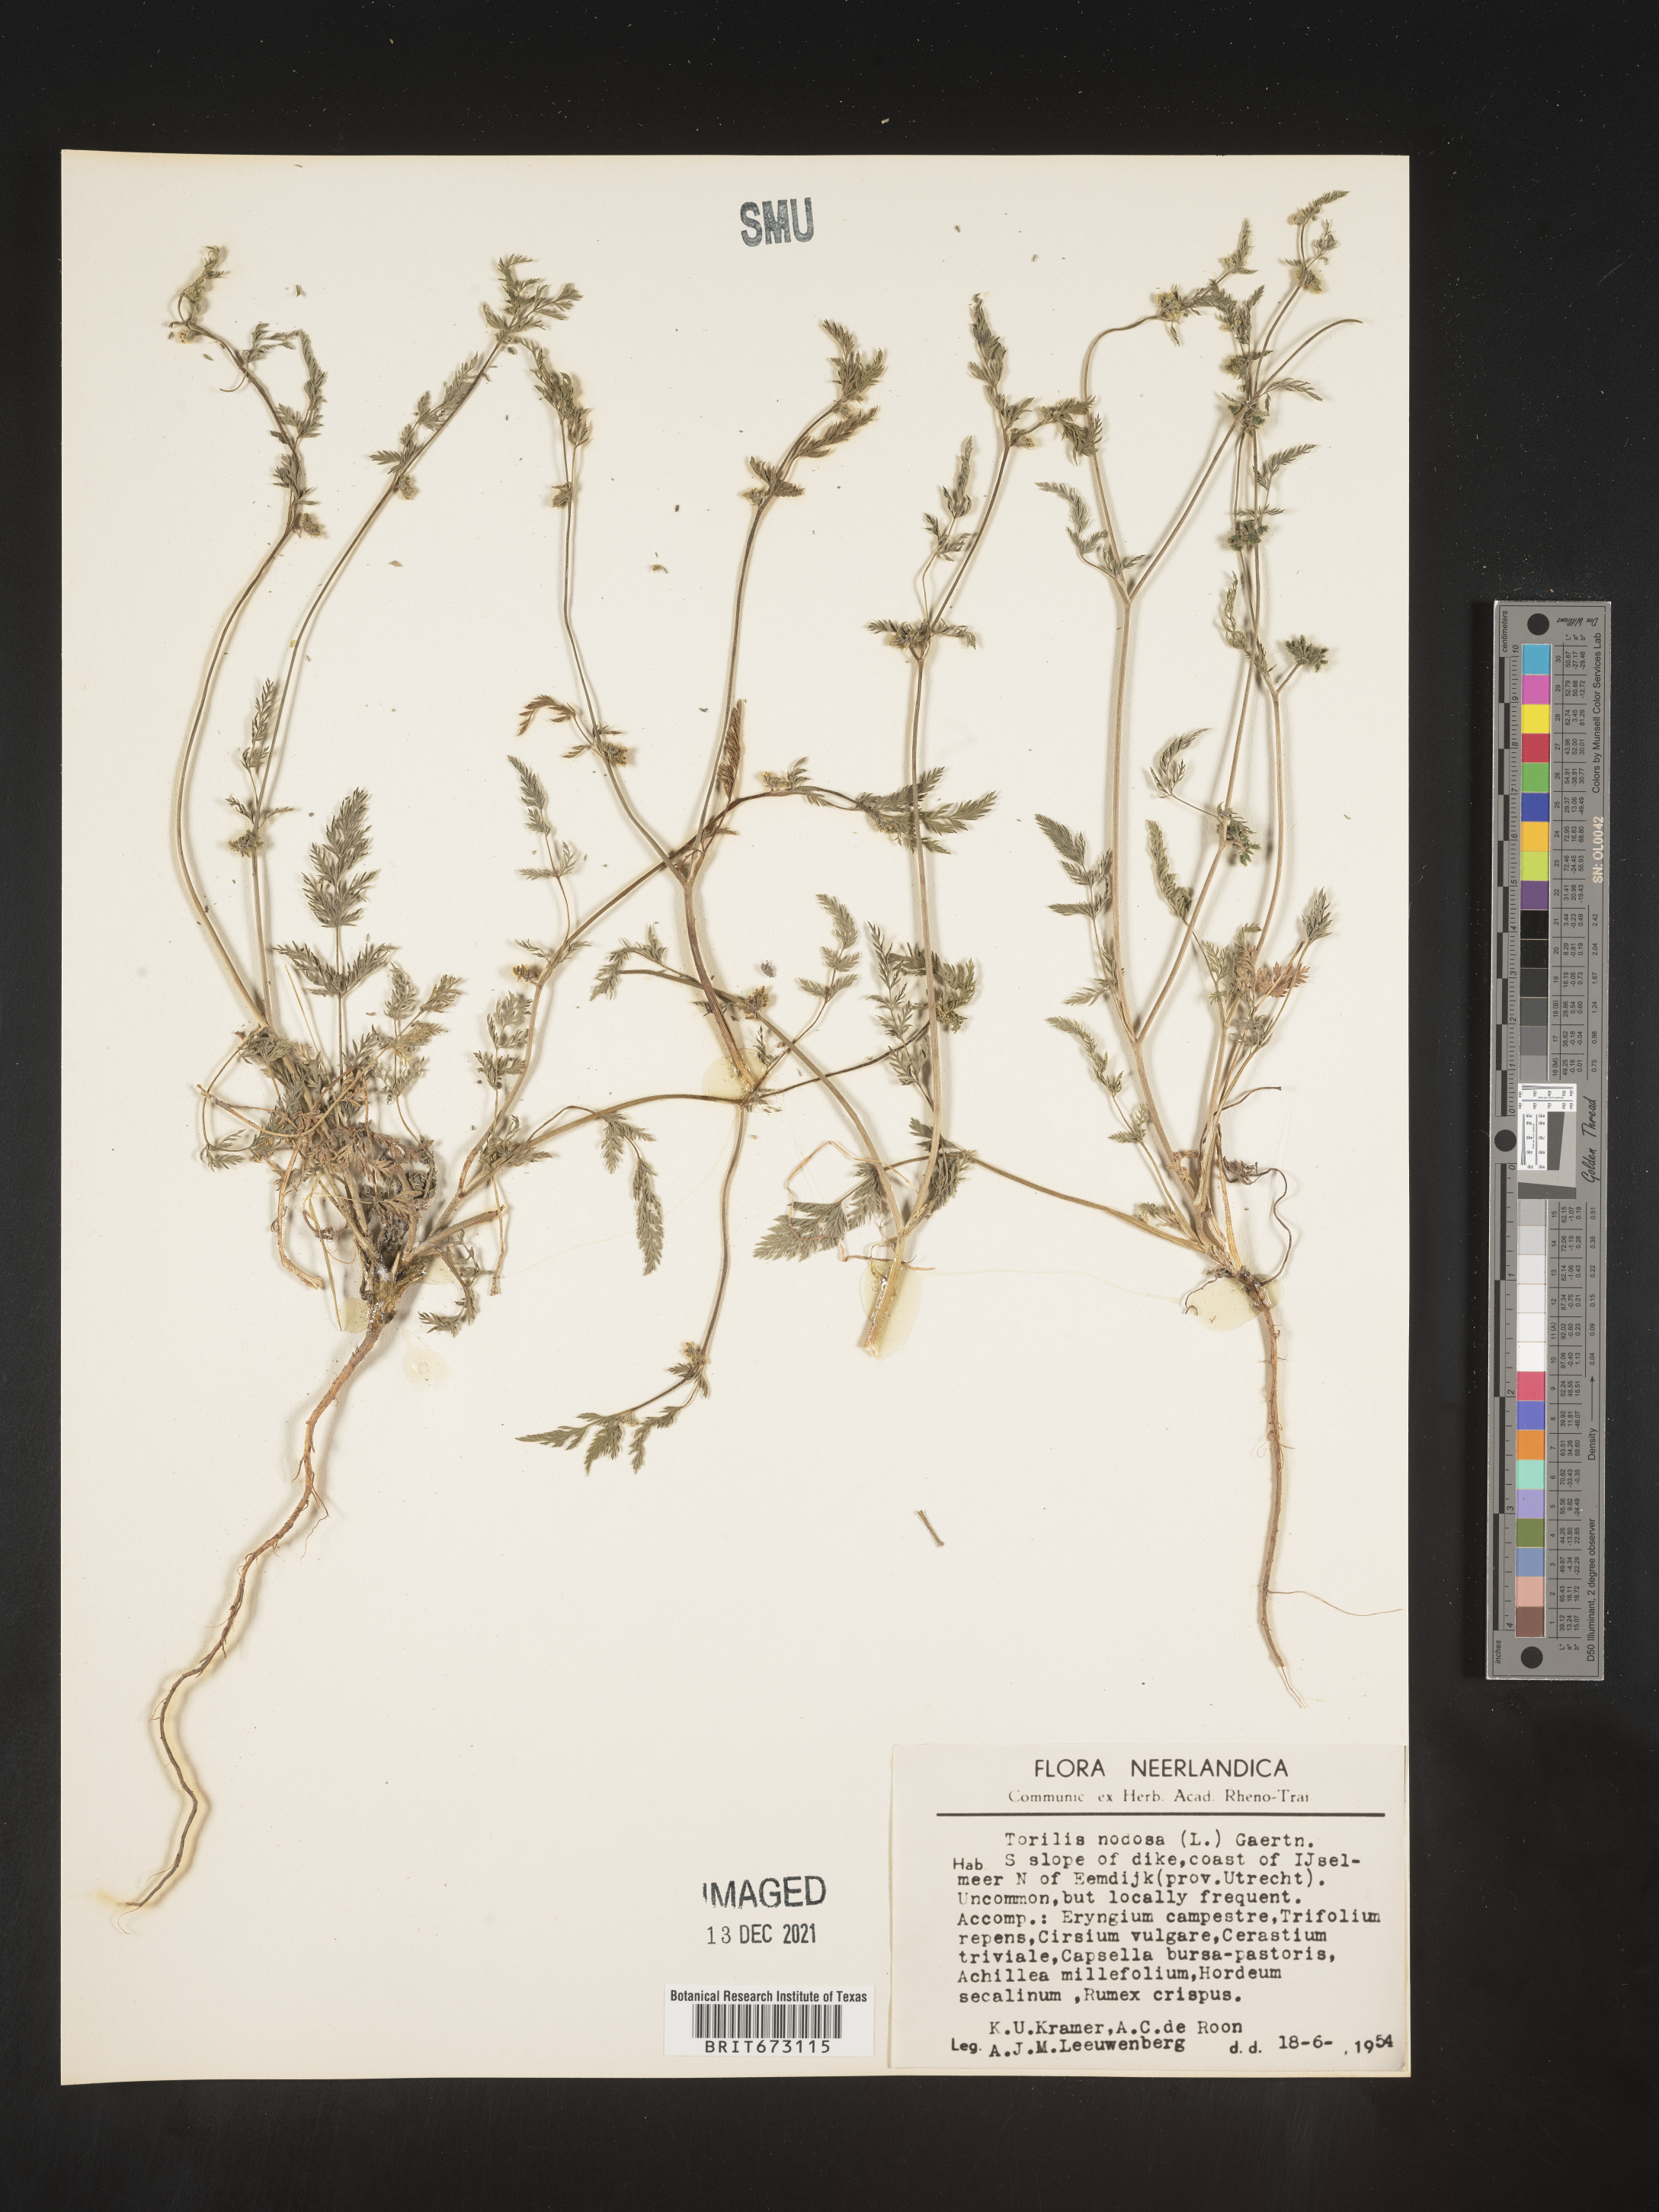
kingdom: Plantae
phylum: Tracheophyta
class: Magnoliopsida
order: Apiales
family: Apiaceae
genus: Torilis
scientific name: Torilis
